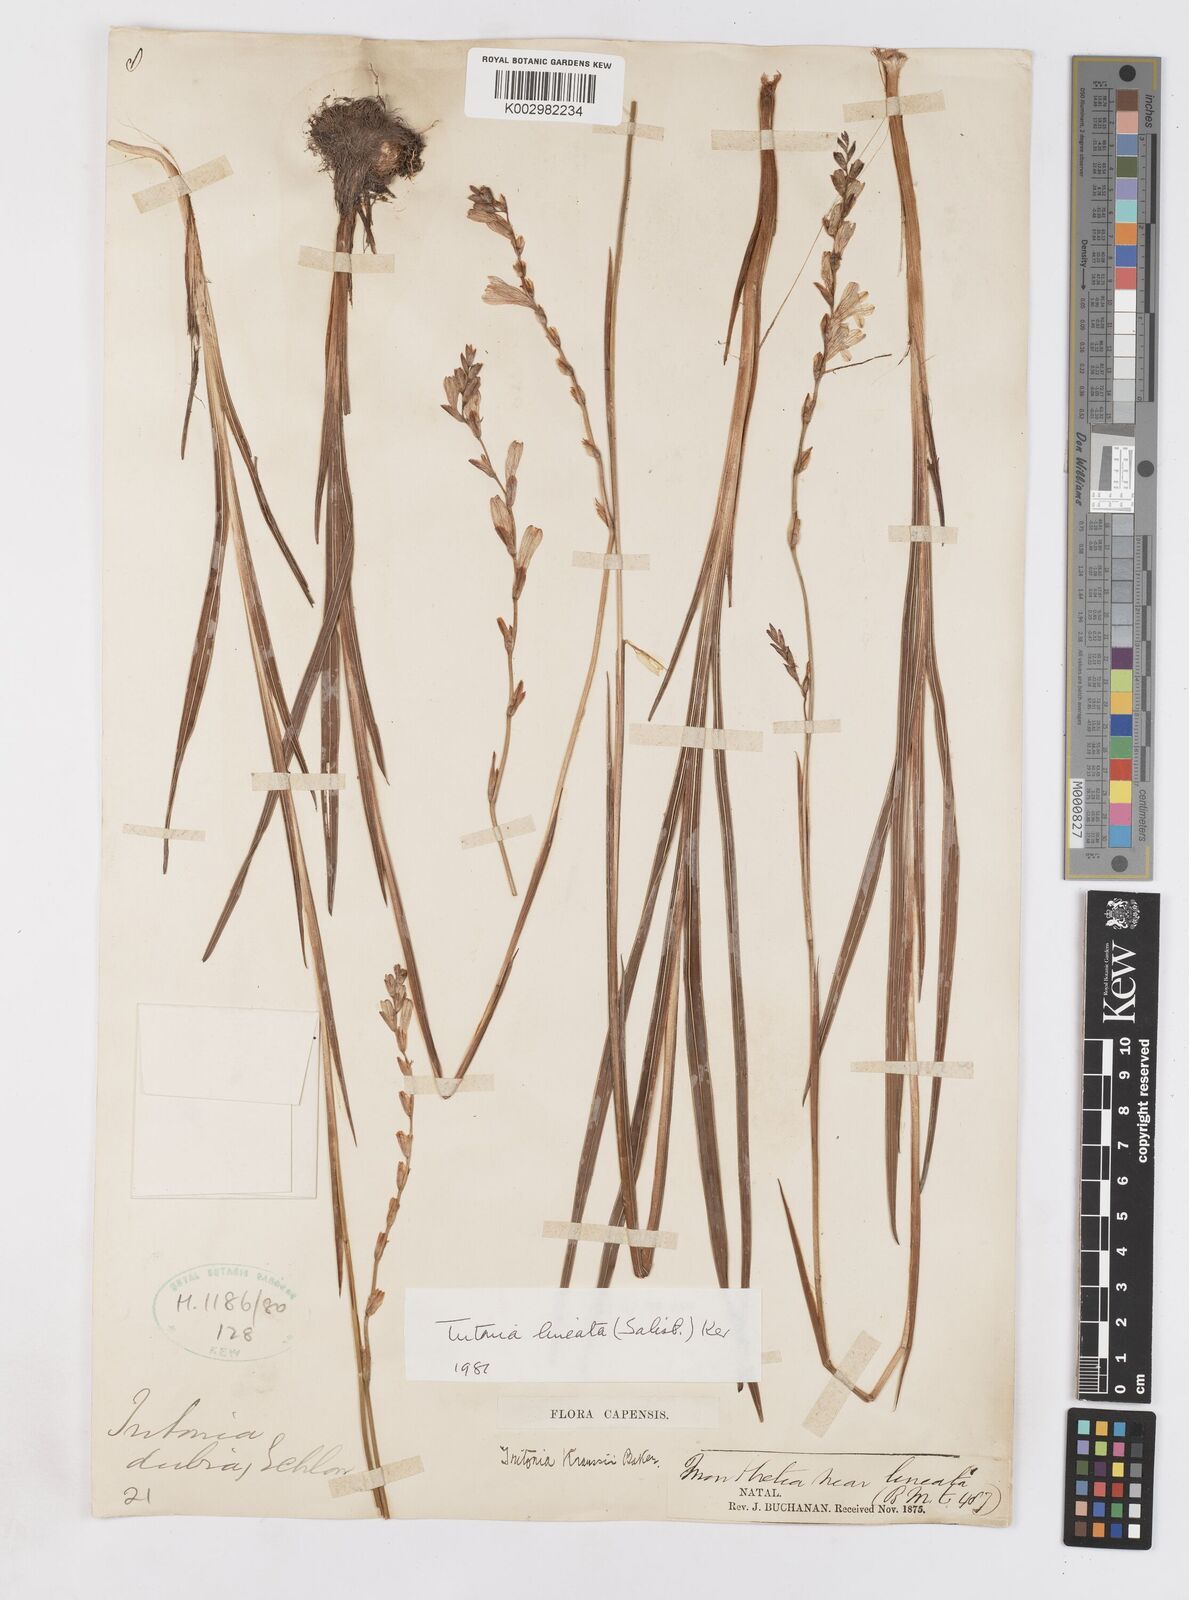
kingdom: Plantae
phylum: Tracheophyta
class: Liliopsida
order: Asparagales
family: Iridaceae
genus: Tritonia
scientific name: Tritonia gladiolaris
